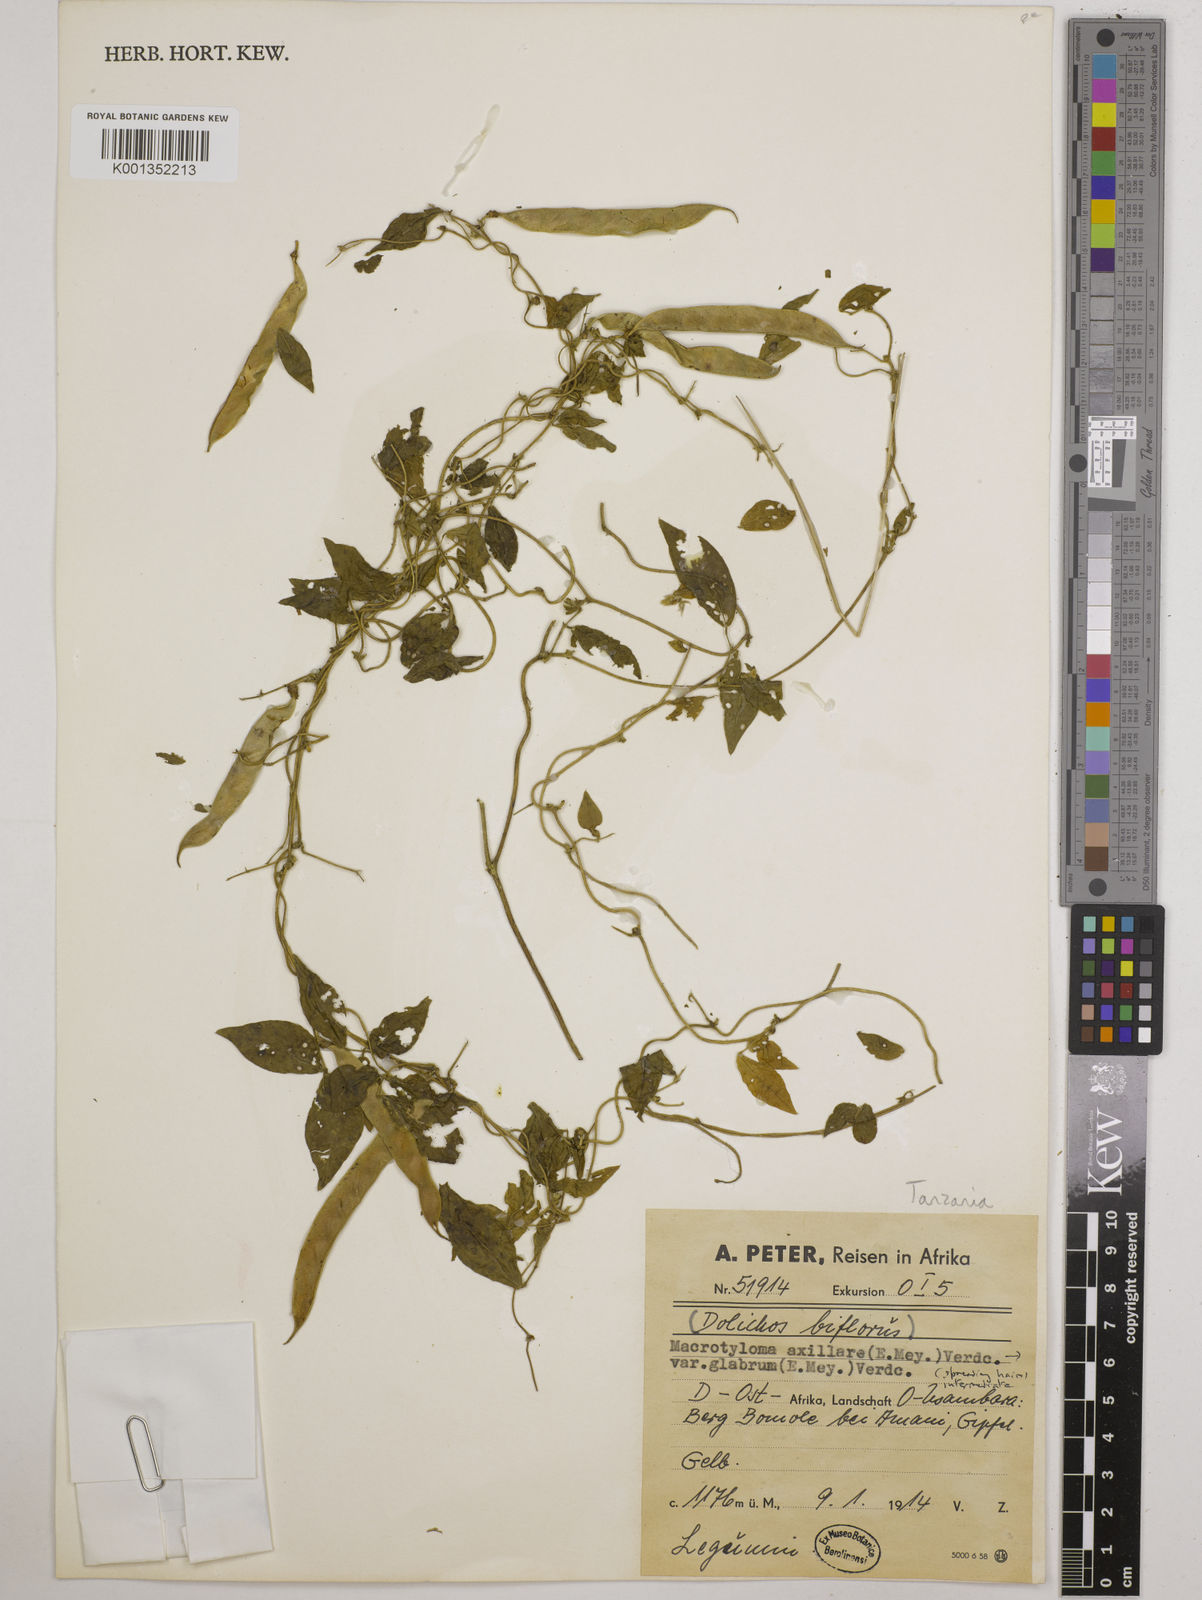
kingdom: Plantae
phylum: Tracheophyta
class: Magnoliopsida
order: Fabales
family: Fabaceae
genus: Macrotyloma
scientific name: Macrotyloma
